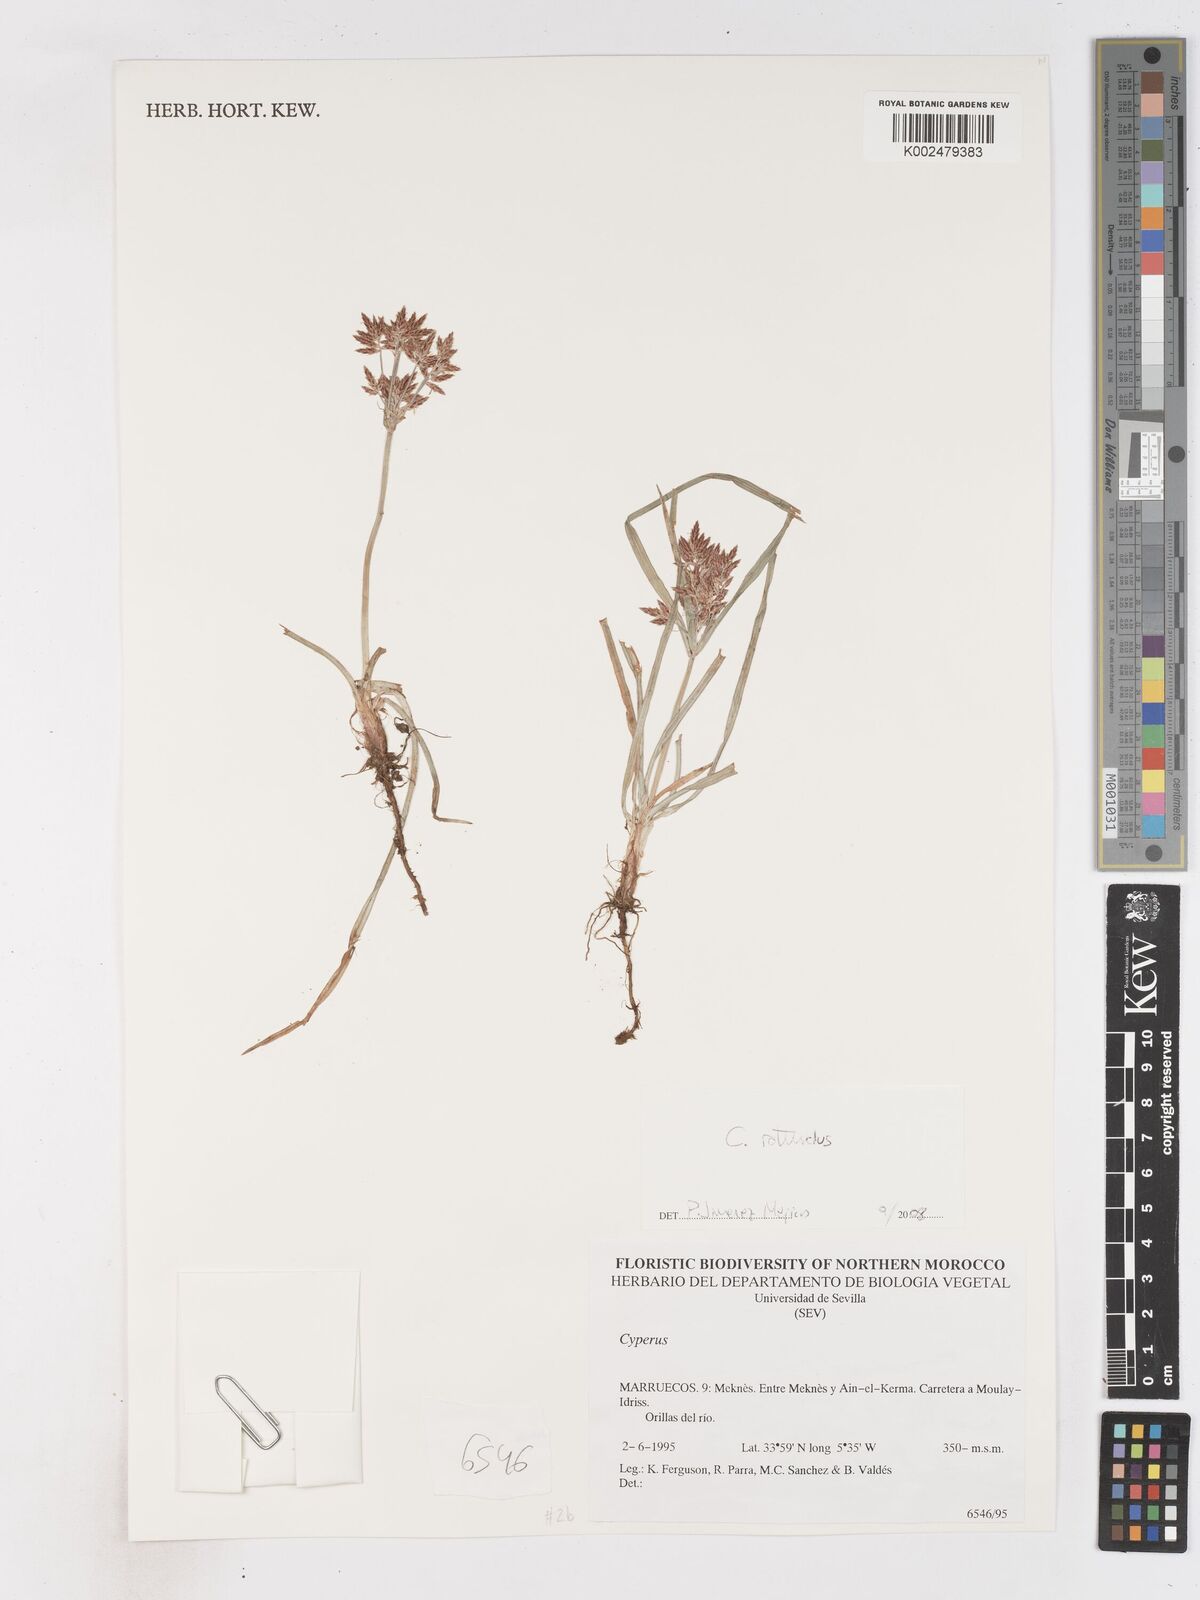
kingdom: Plantae
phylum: Tracheophyta
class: Liliopsida
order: Poales
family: Cyperaceae
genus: Cyperus
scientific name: Cyperus
